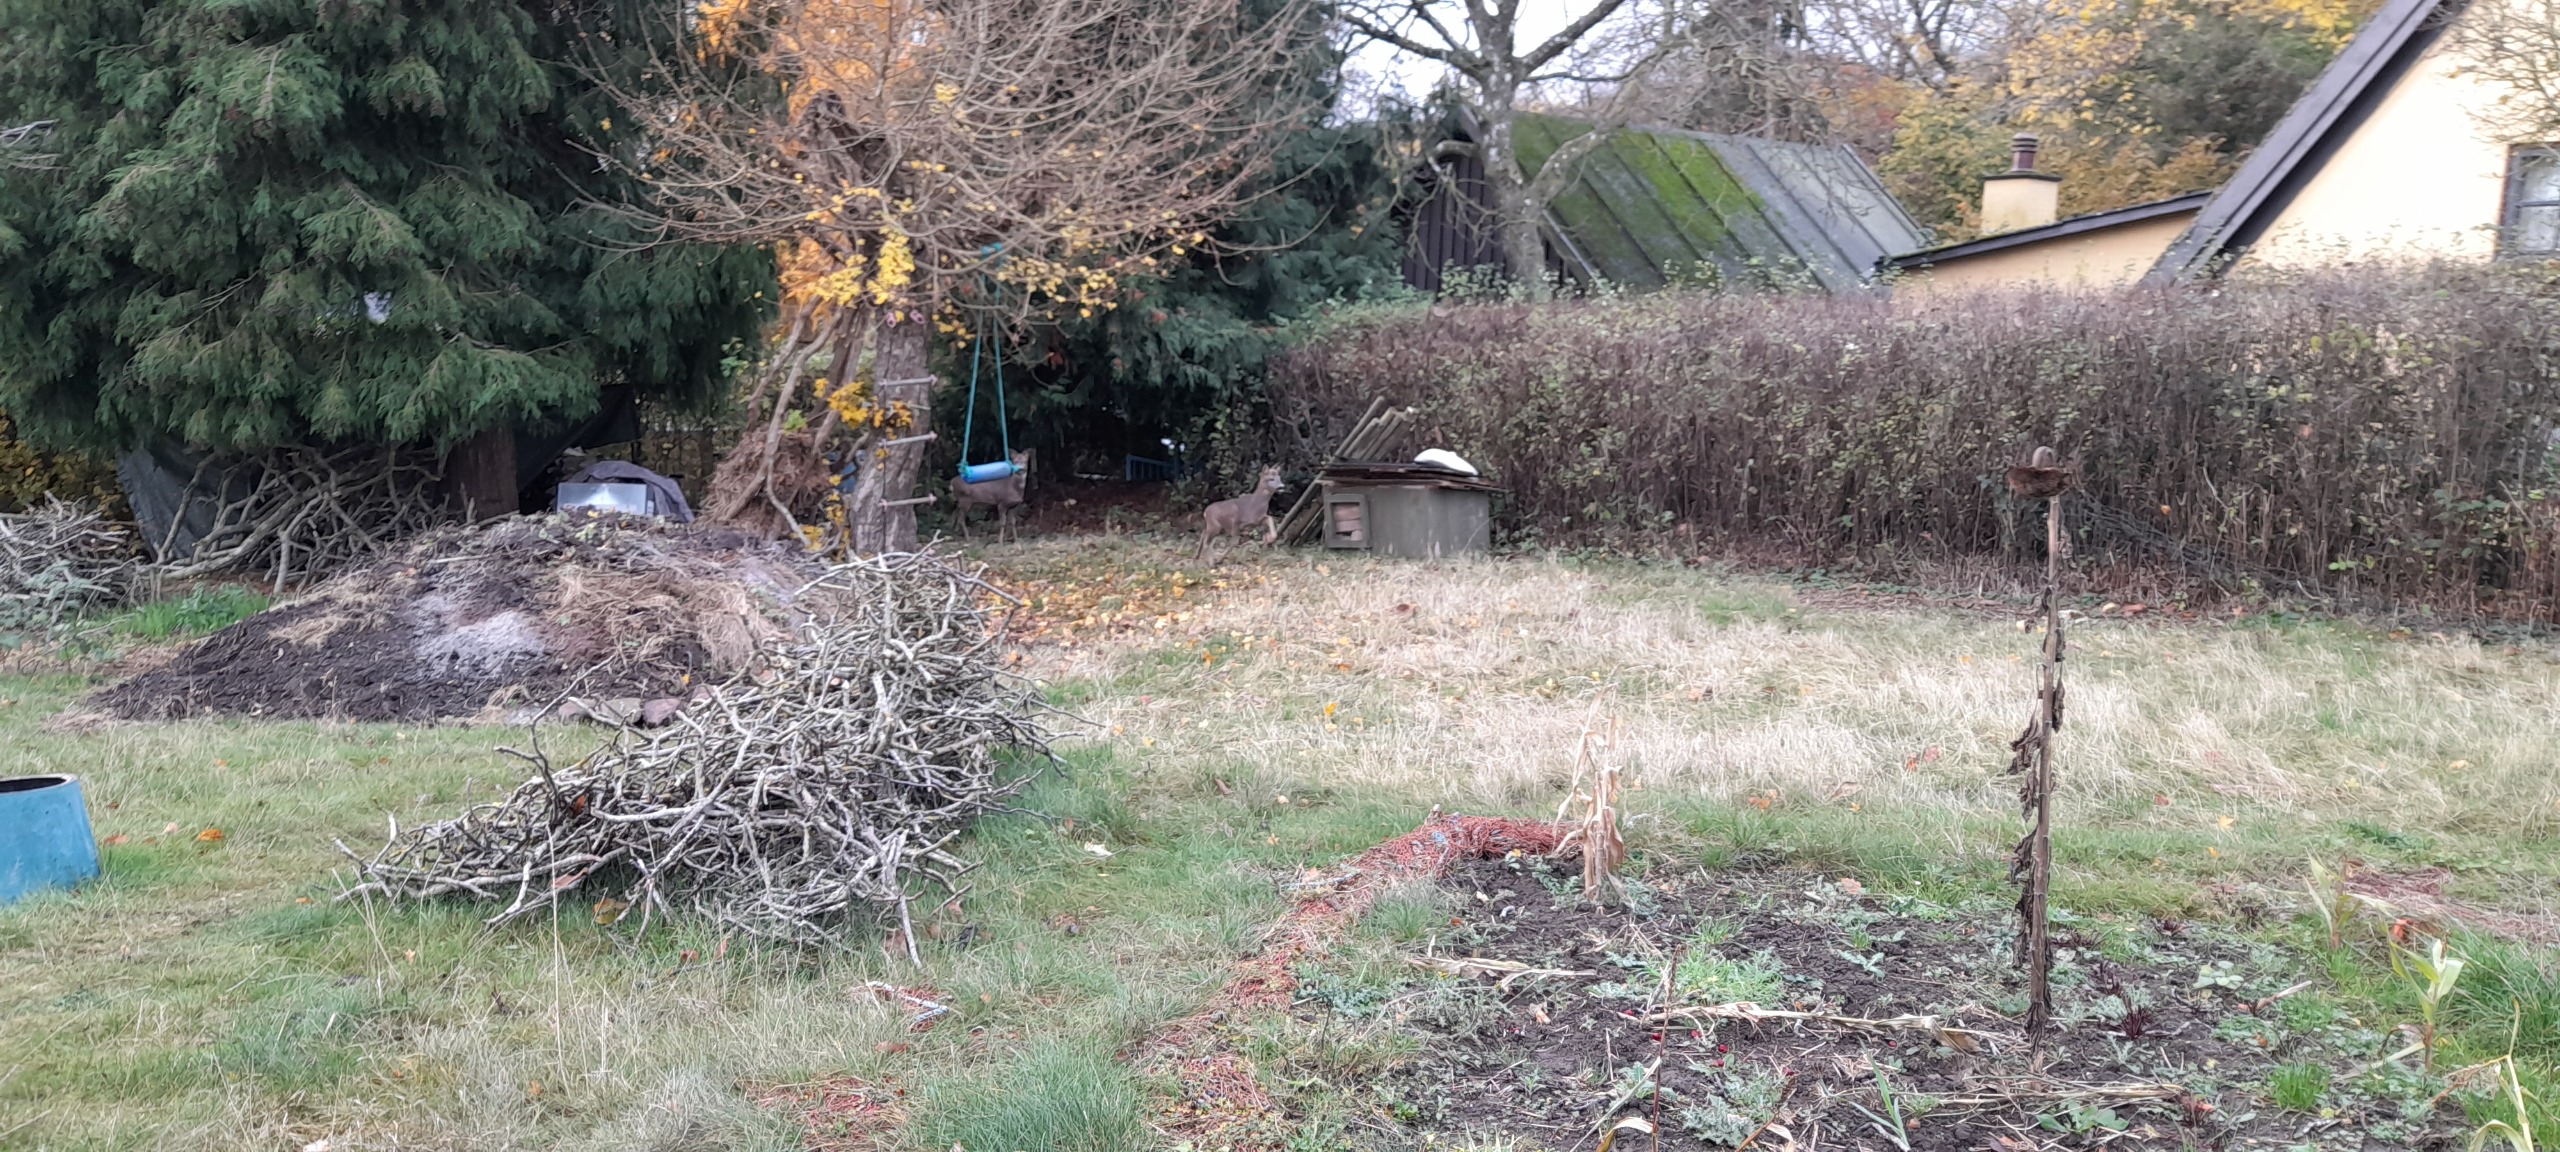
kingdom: Animalia
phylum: Chordata
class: Mammalia
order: Artiodactyla
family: Cervidae
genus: Capreolus
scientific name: Capreolus capreolus
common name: Rådyr
